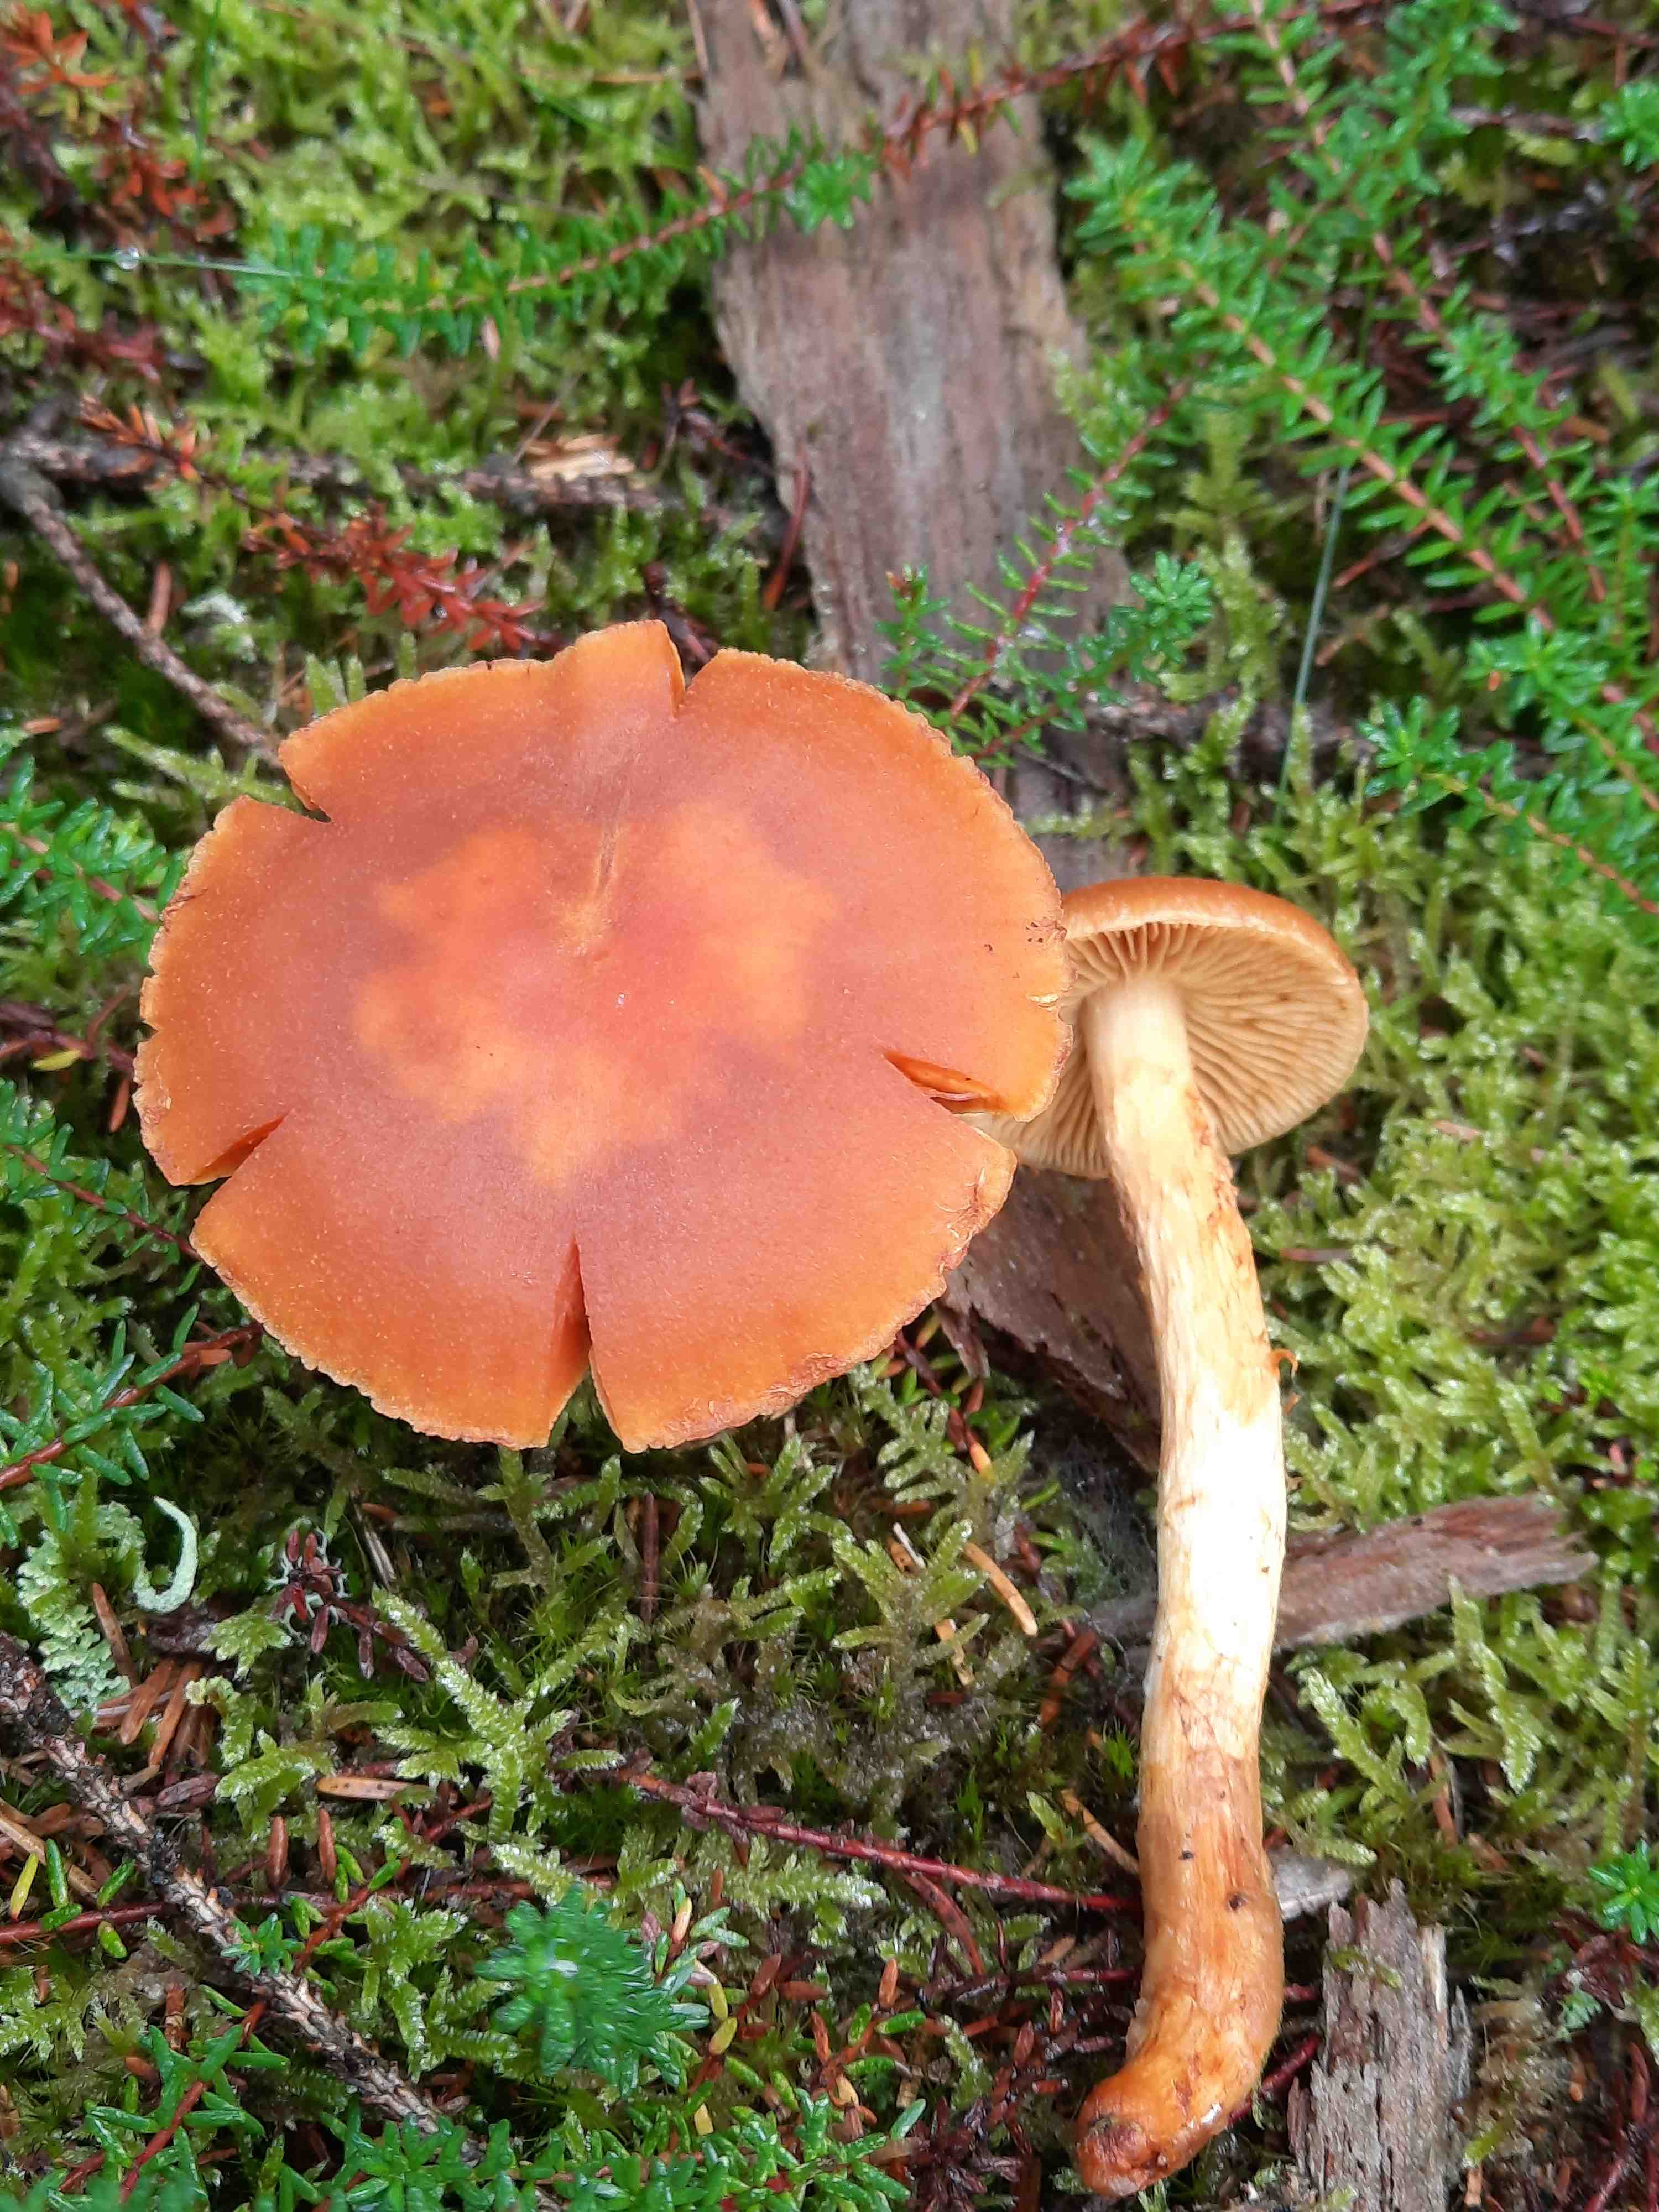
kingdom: Fungi
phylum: Basidiomycota
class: Agaricomycetes
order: Agaricales
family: Cortinariaceae
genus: Aureonarius
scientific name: Aureonarius limonius
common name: orangegul slørhat
